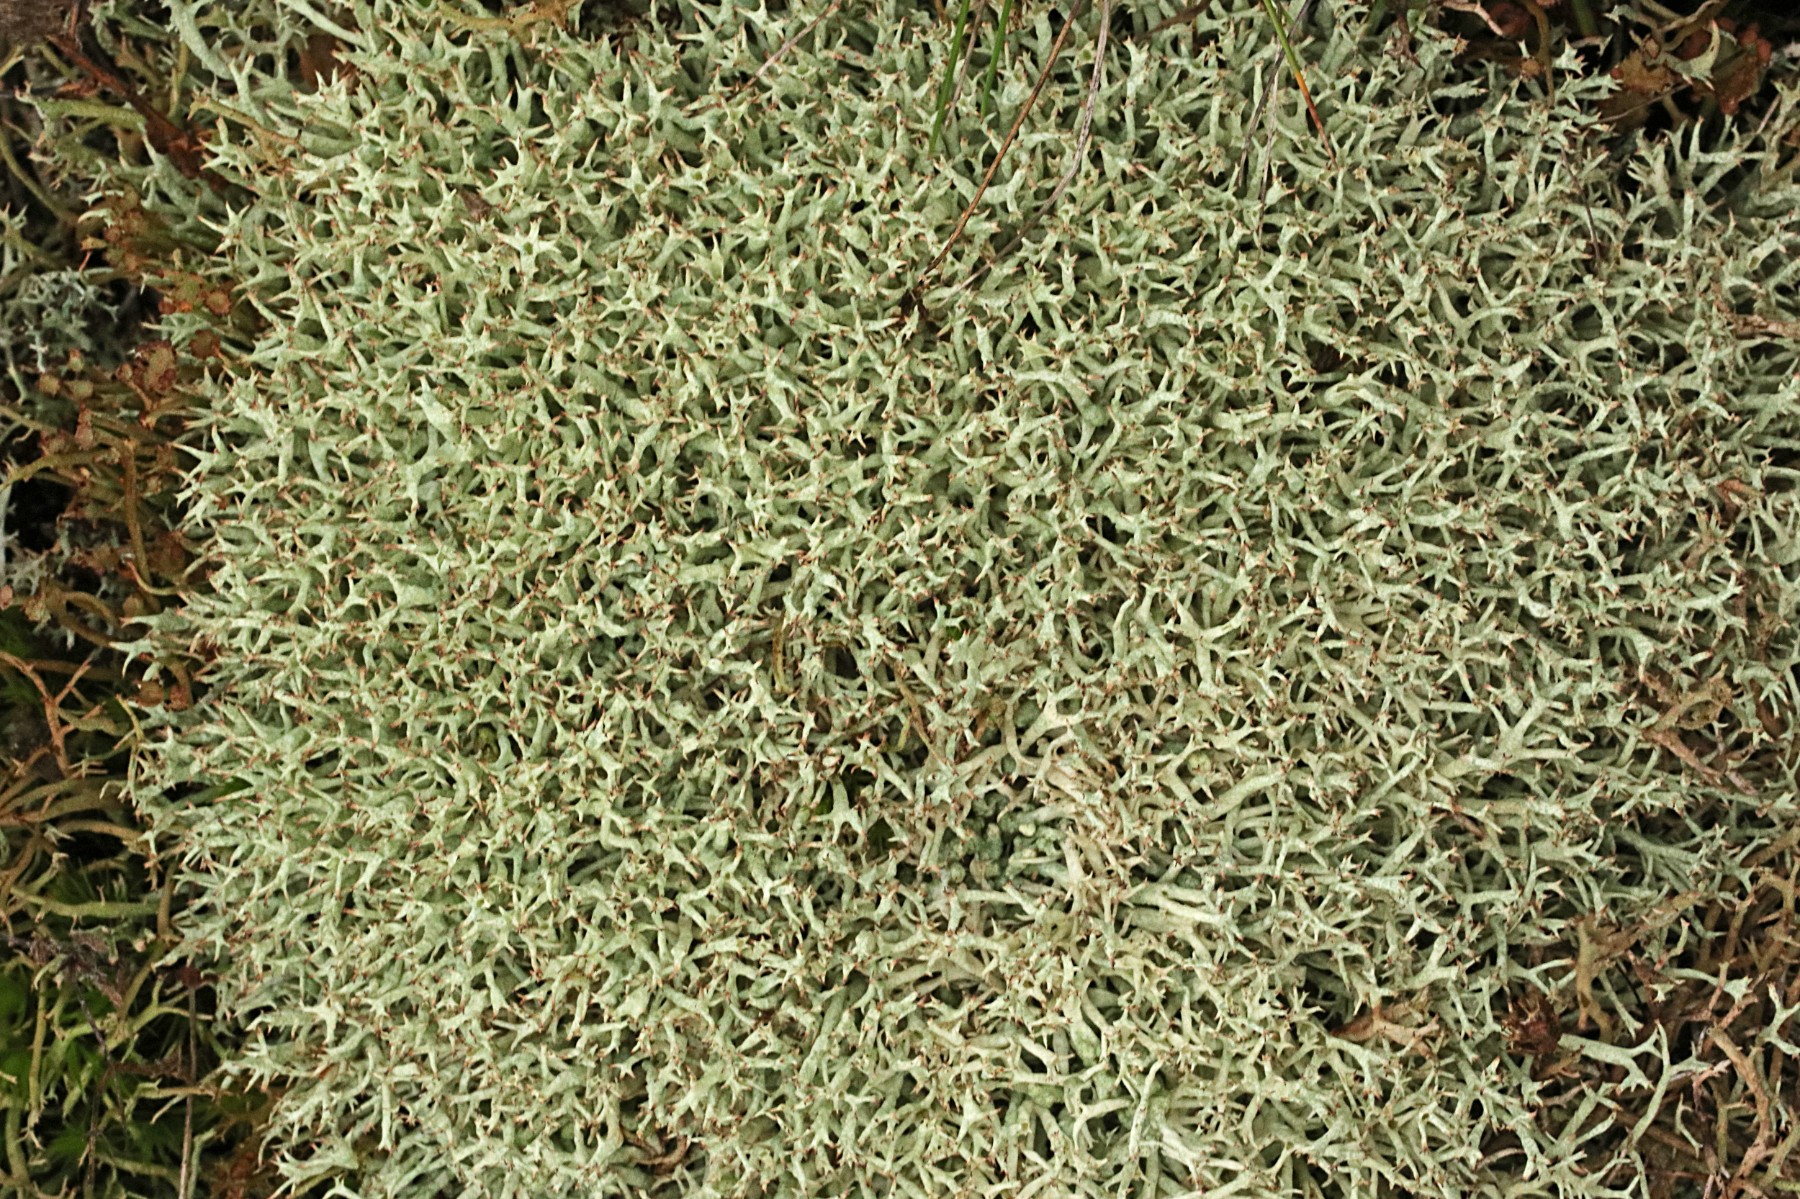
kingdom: Fungi
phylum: Ascomycota
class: Lecanoromycetes
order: Lecanorales
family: Cladoniaceae
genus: Cladonia
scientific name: Cladonia uncialis
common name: pigget bægerlav
